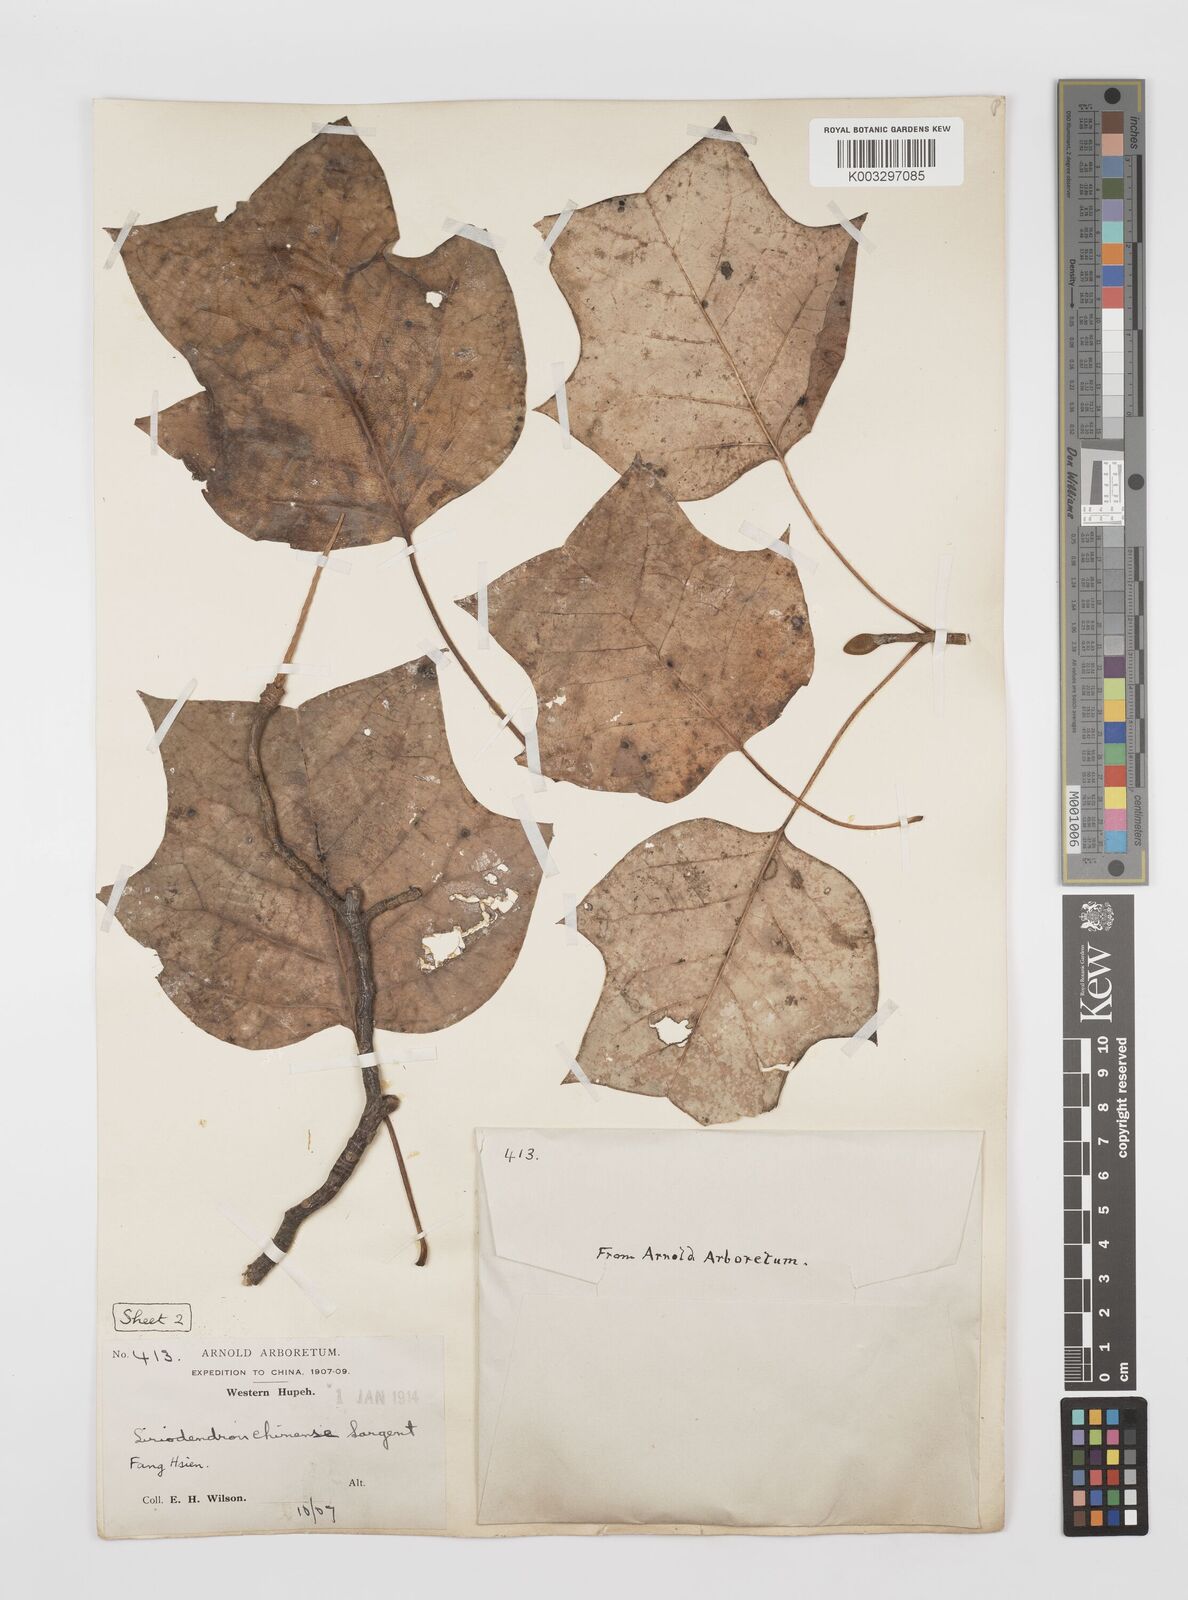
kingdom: Plantae
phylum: Tracheophyta
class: Magnoliopsida
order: Magnoliales
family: Magnoliaceae
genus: Liriodendron
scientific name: Liriodendron chinense
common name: Chinese tuliptree
